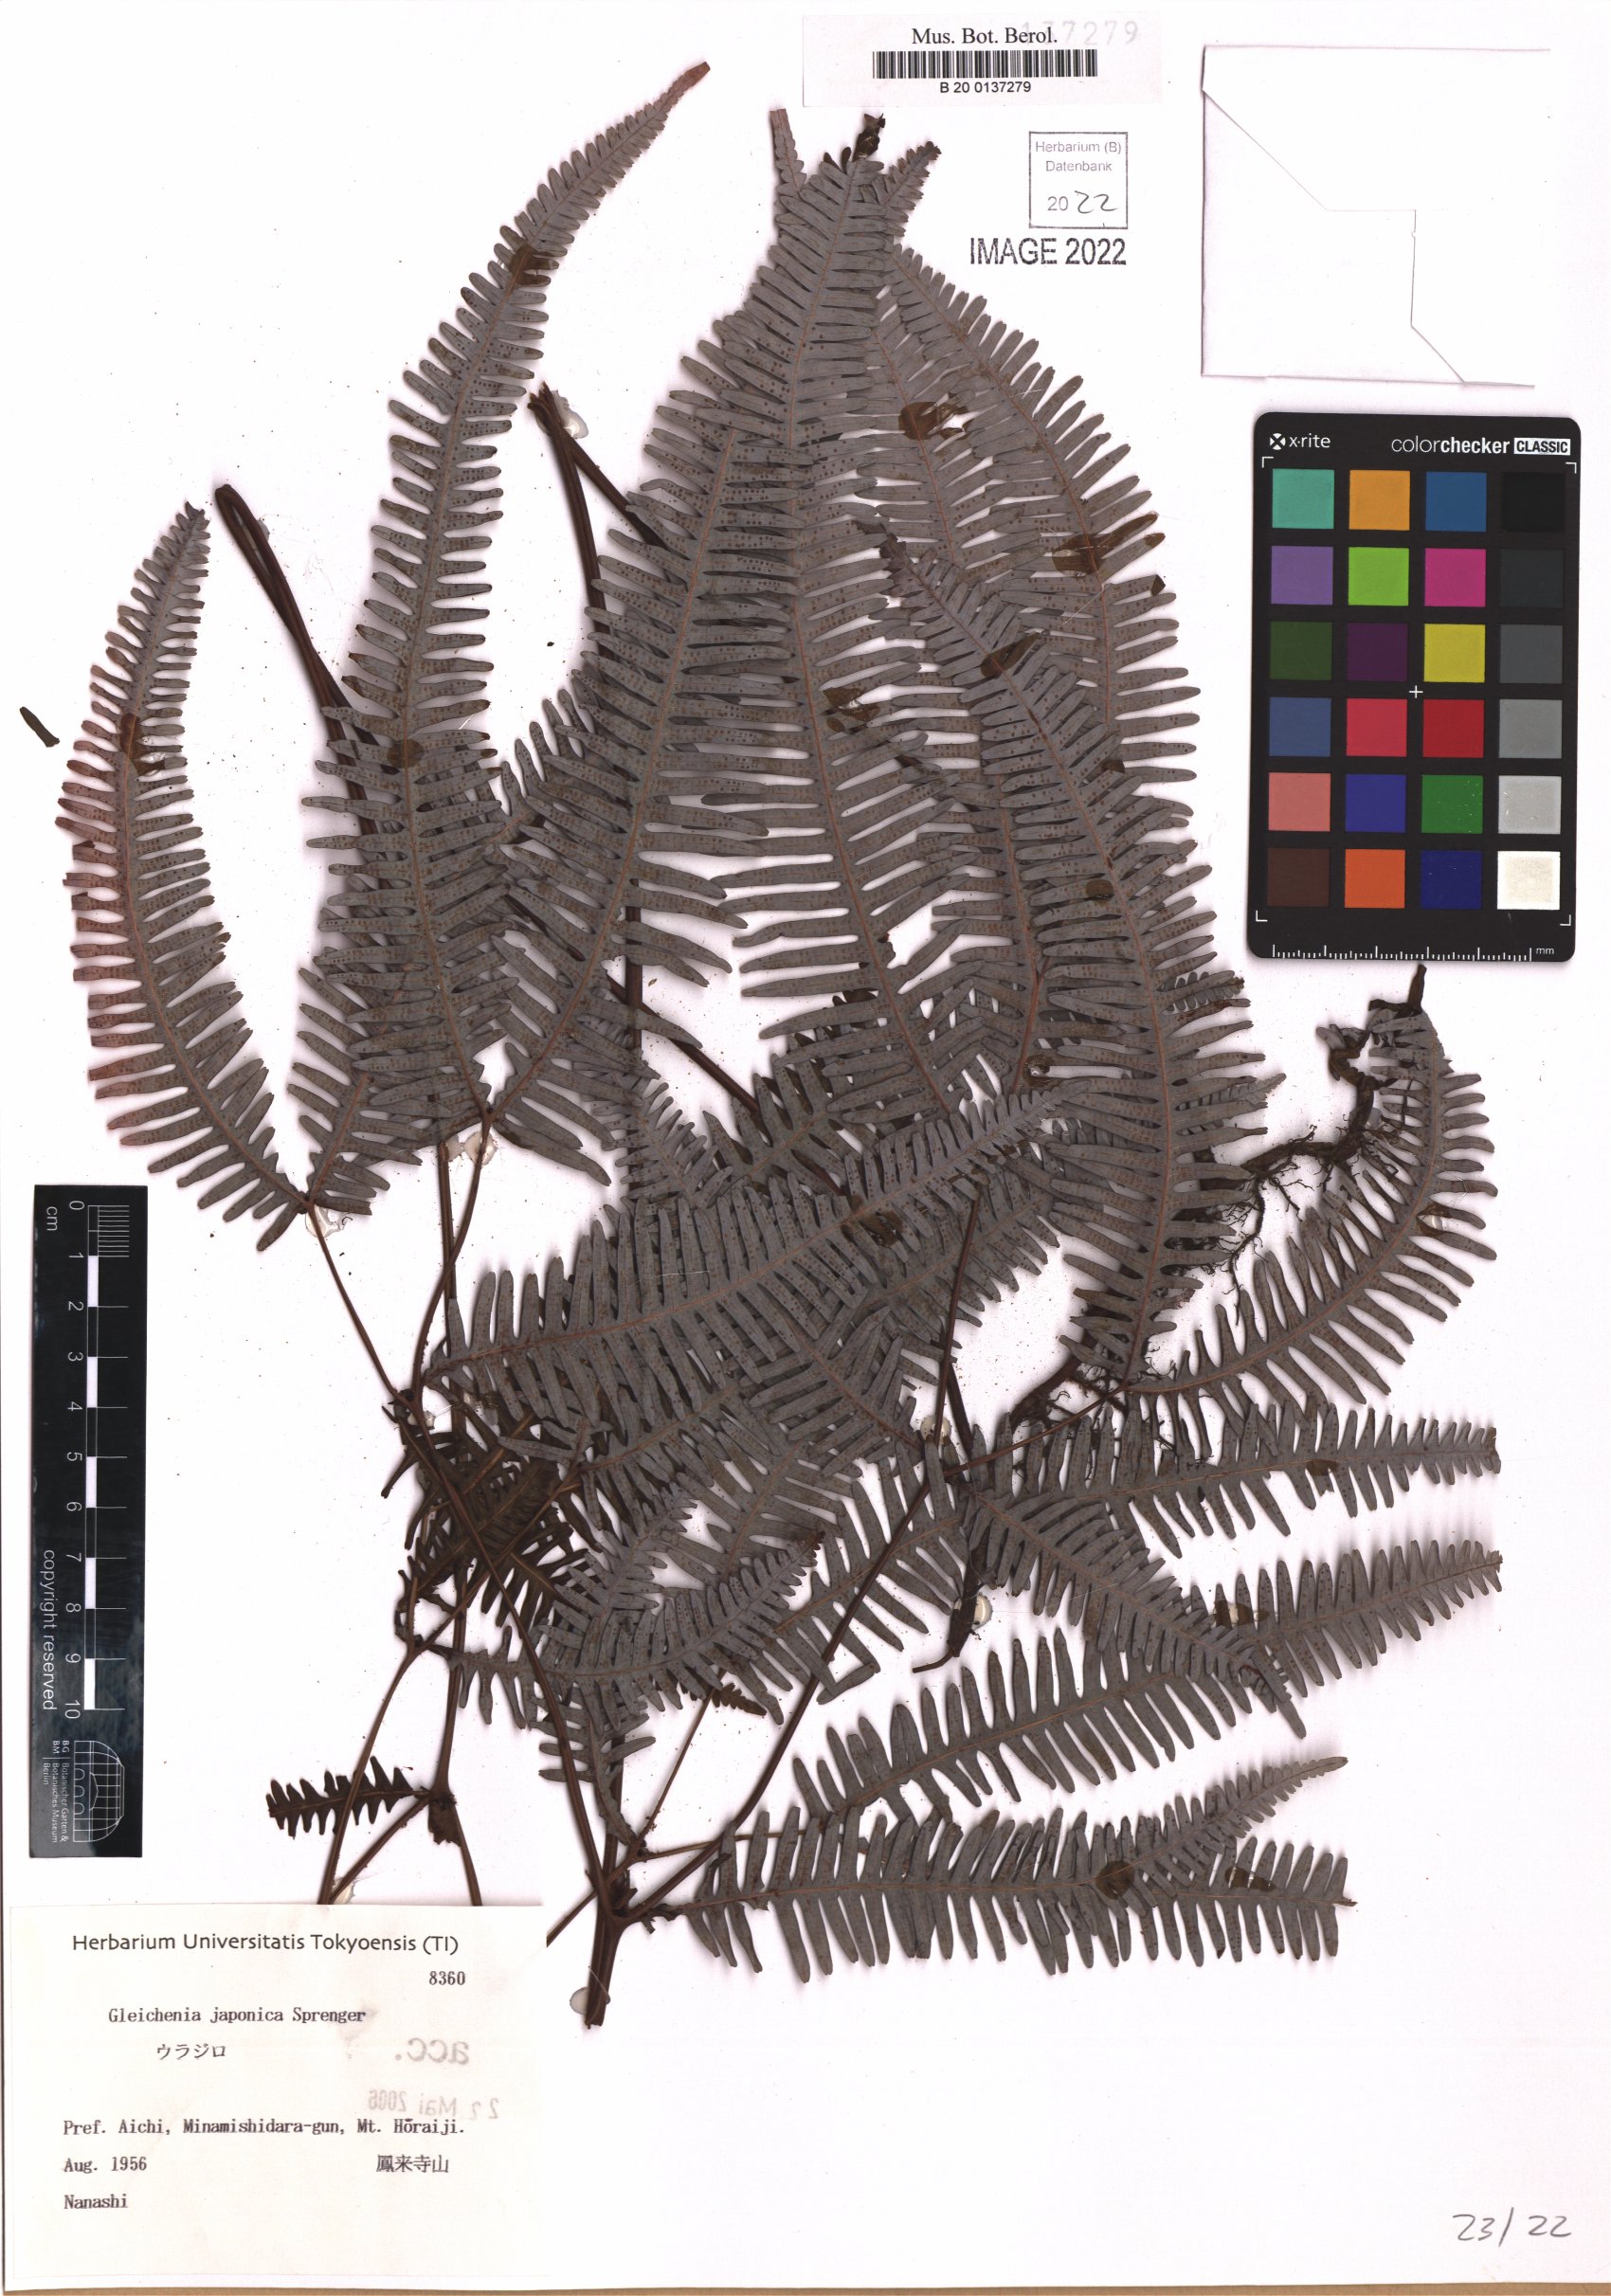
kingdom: Plantae
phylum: Tracheophyta
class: Polypodiopsida
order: Gleicheniales
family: Gleicheniaceae
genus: Diplopterygium
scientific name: Diplopterygium glaucum
